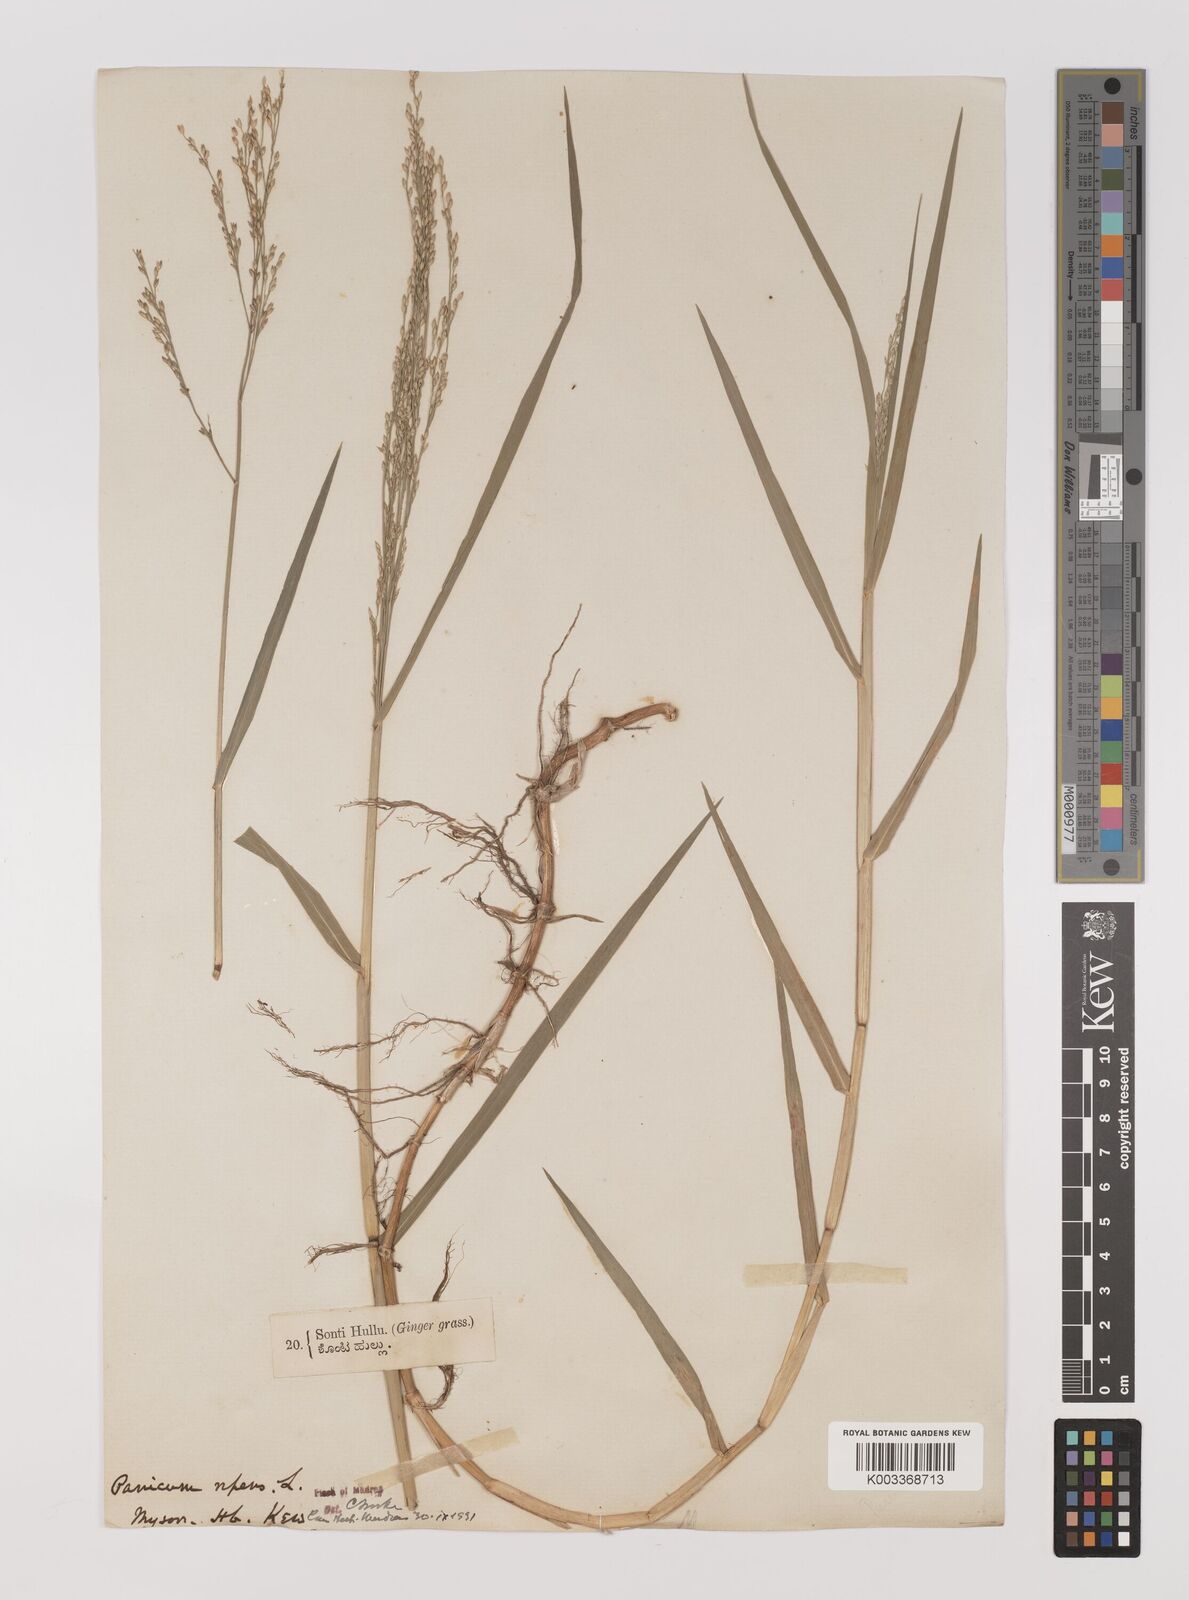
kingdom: Plantae
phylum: Tracheophyta
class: Liliopsida
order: Poales
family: Poaceae
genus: Panicum
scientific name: Panicum repens
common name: Torpedo grass
